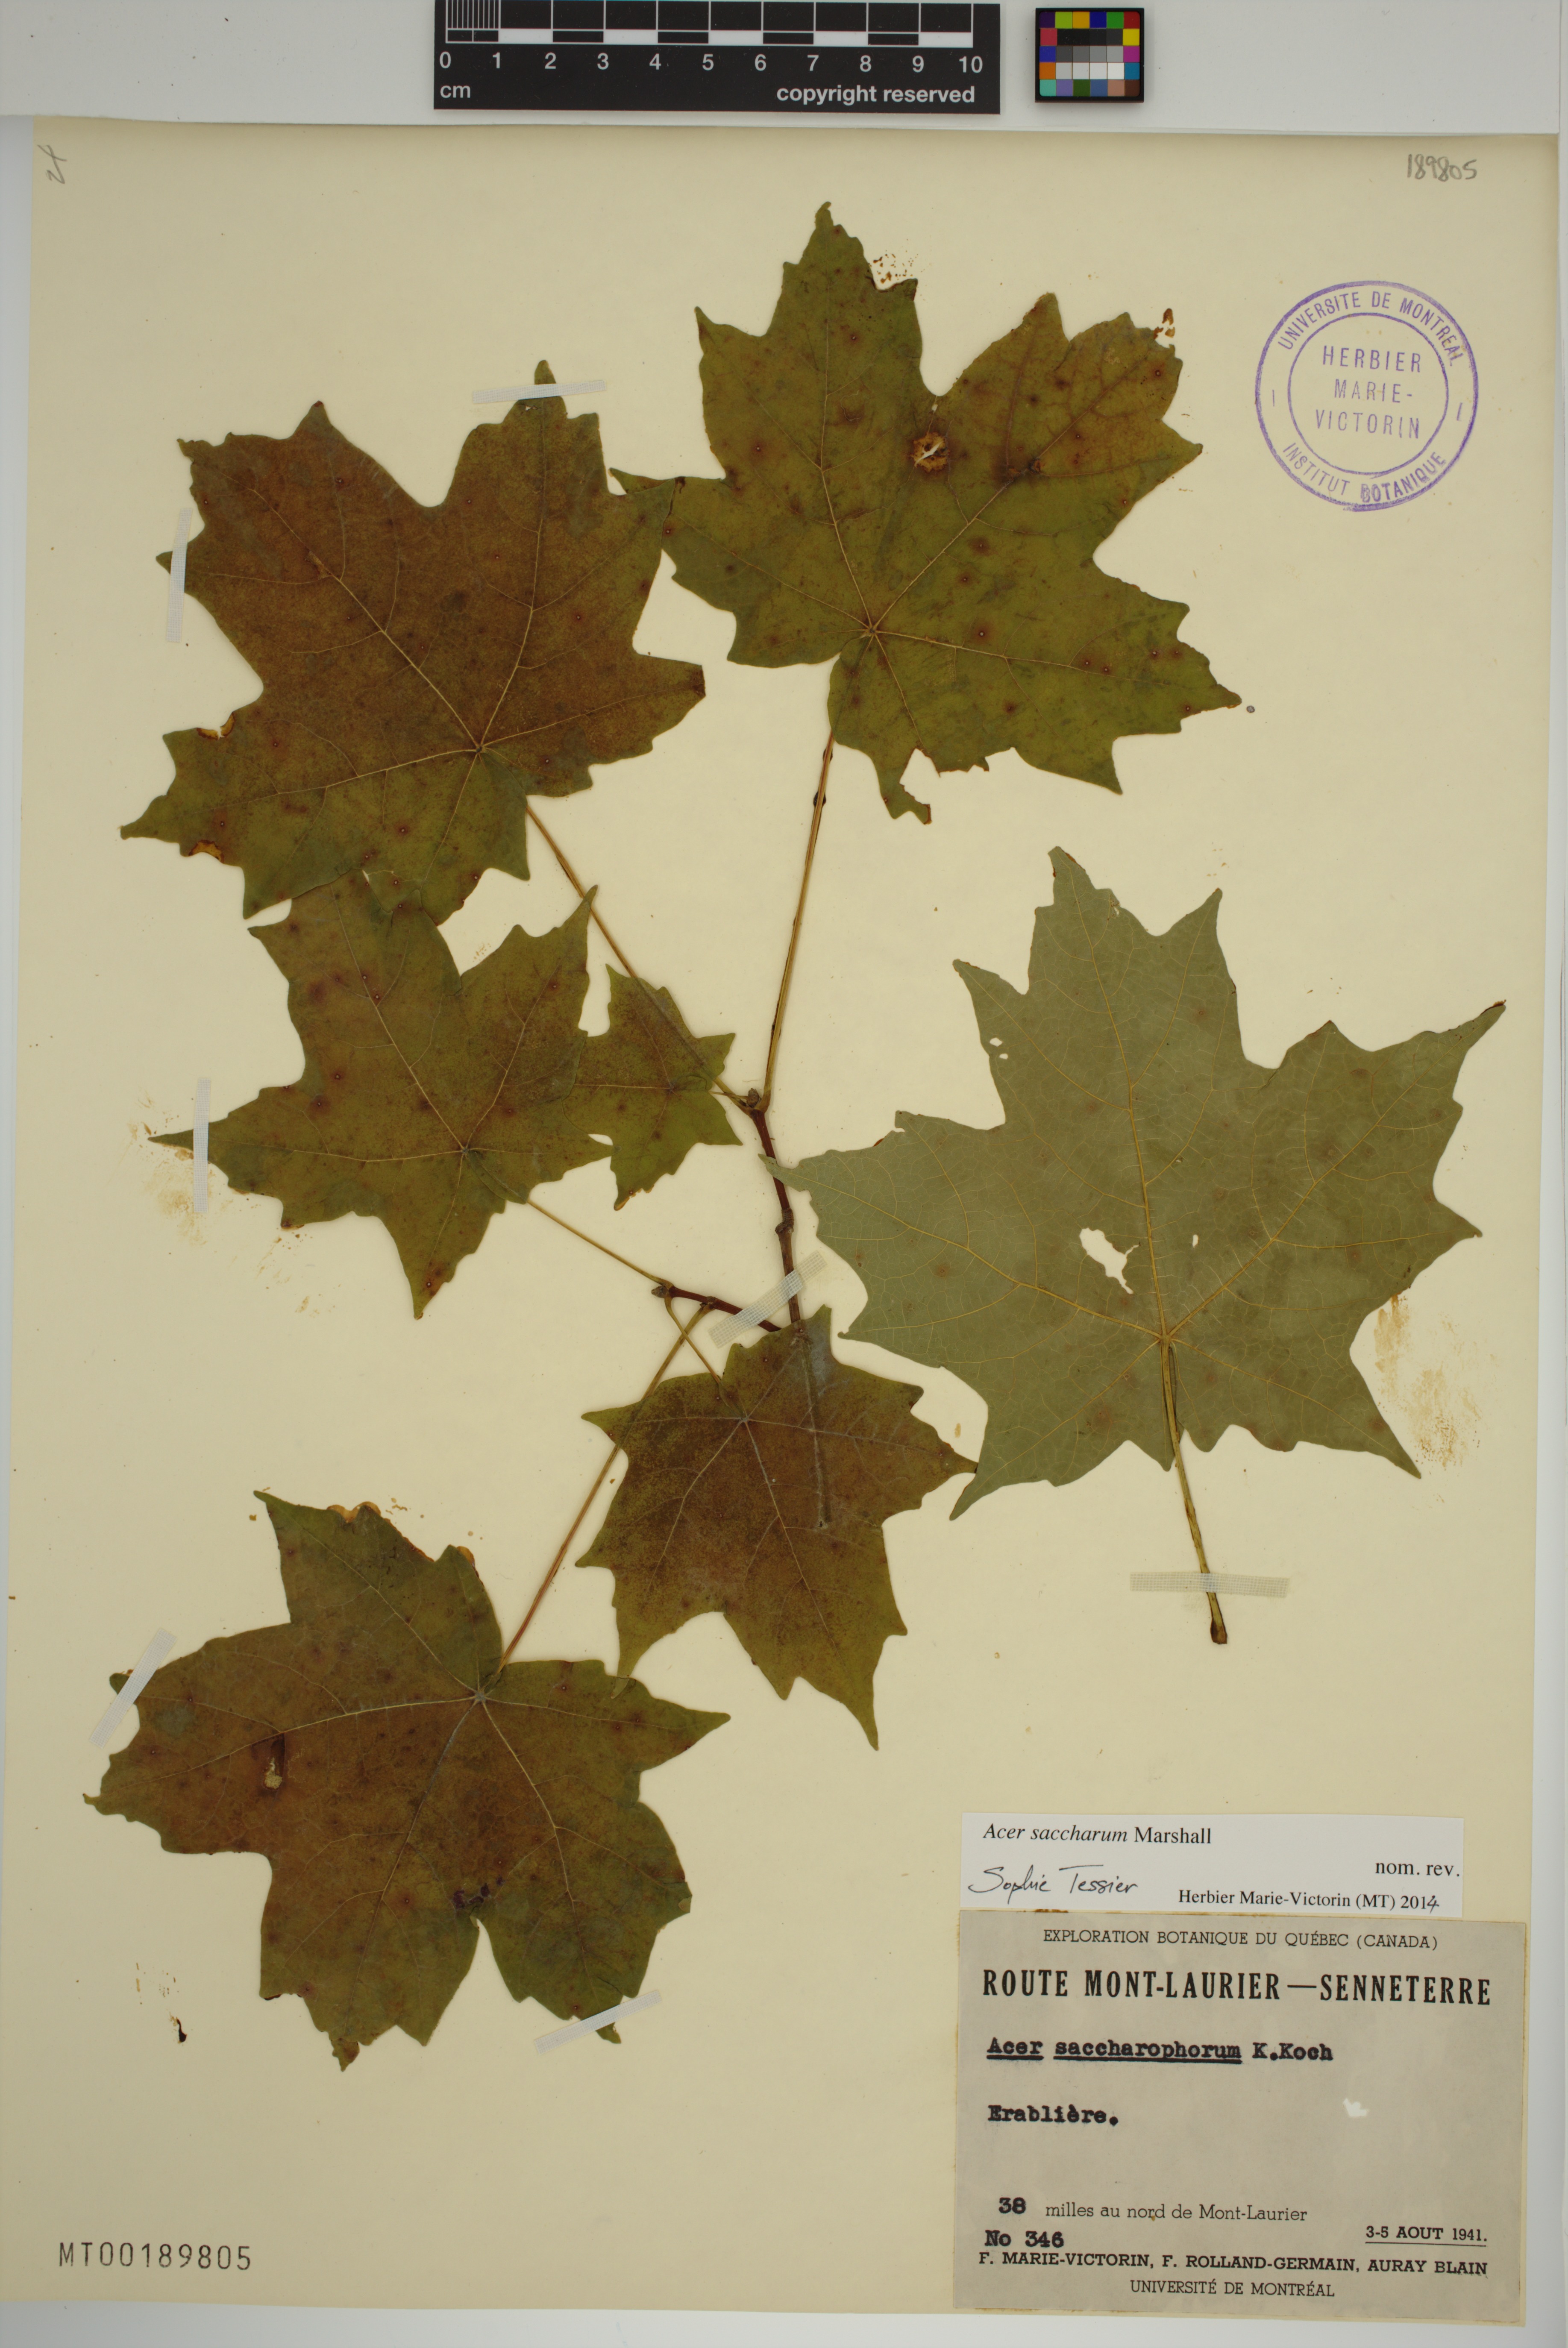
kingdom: Plantae
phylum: Tracheophyta
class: Magnoliopsida
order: Sapindales
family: Sapindaceae
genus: Acer
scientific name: Acer saccharum
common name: Sugar maple
